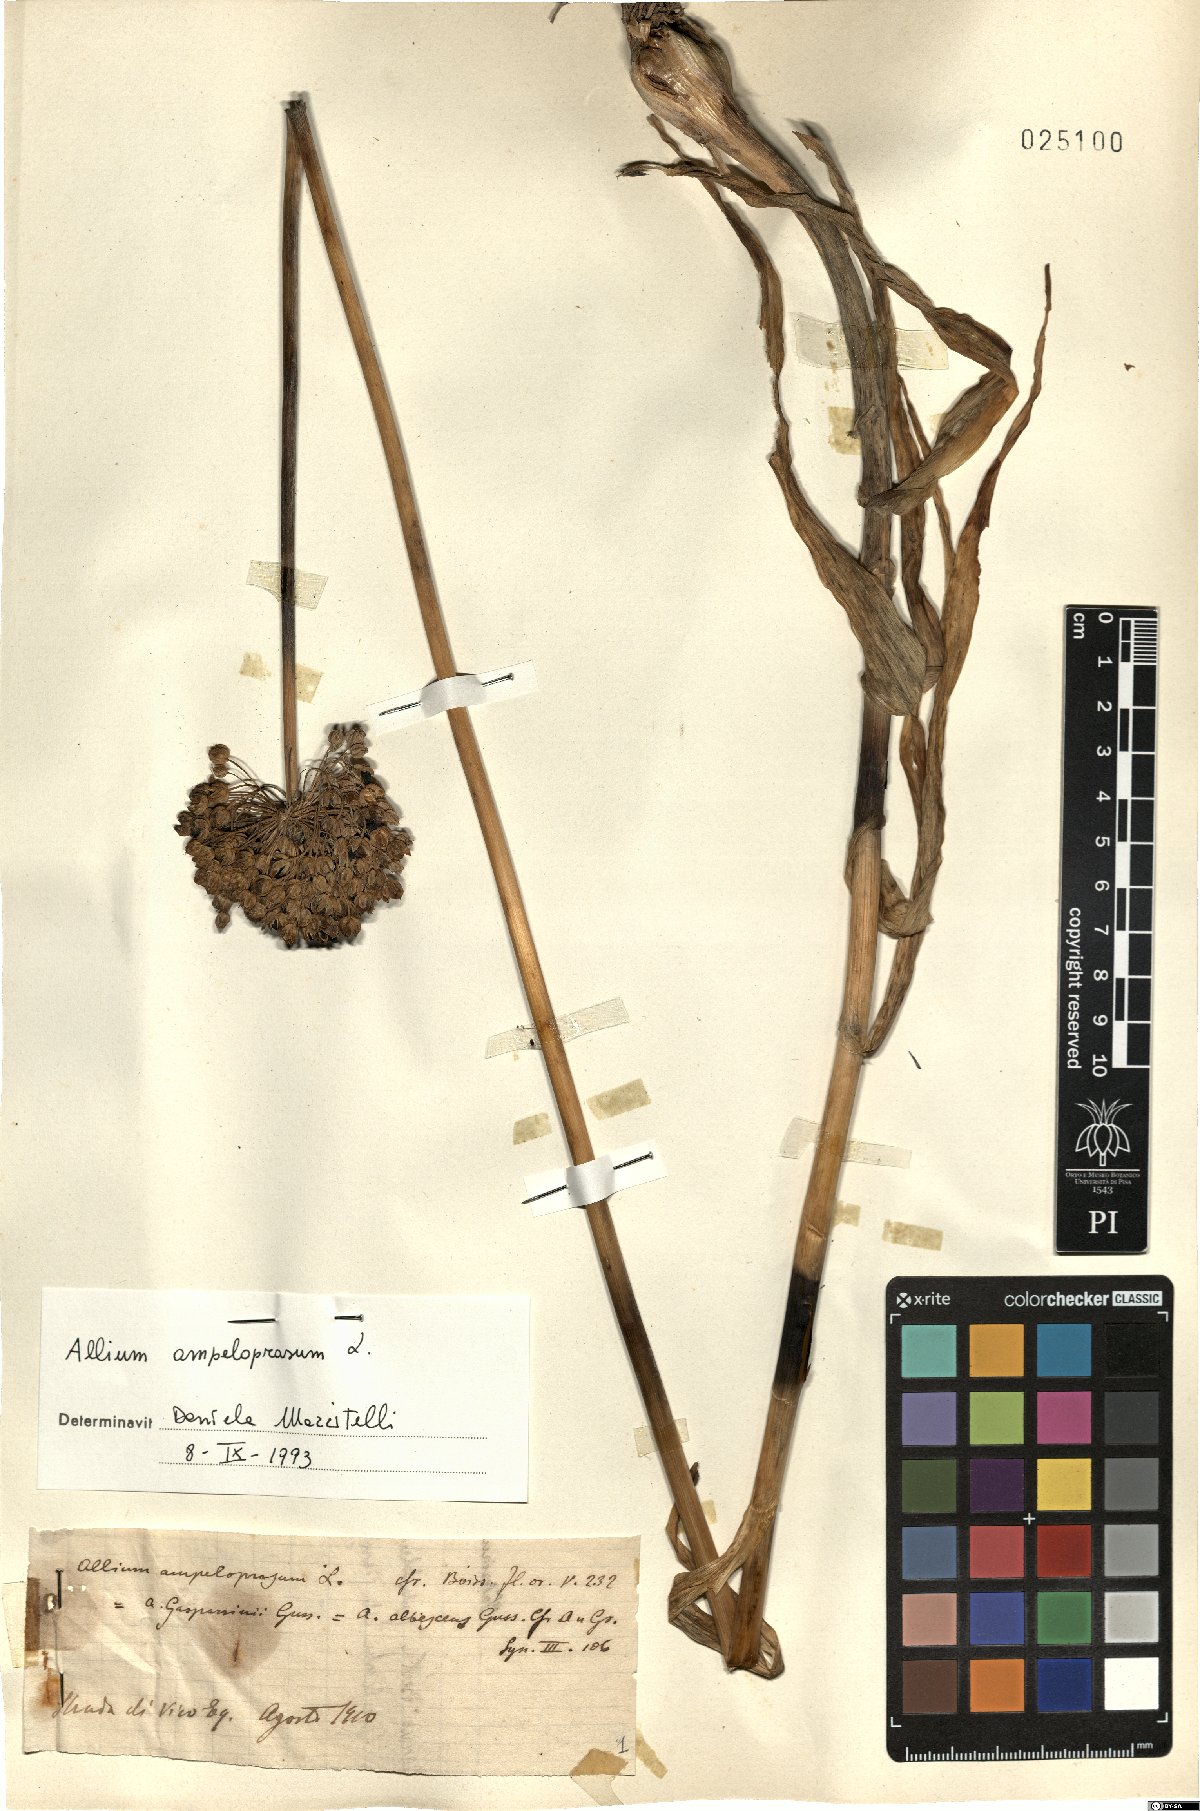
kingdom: Plantae
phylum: Tracheophyta
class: Liliopsida
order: Asparagales
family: Amaryllidaceae
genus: Allium
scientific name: Allium ampeloprasum
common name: Wild leek
